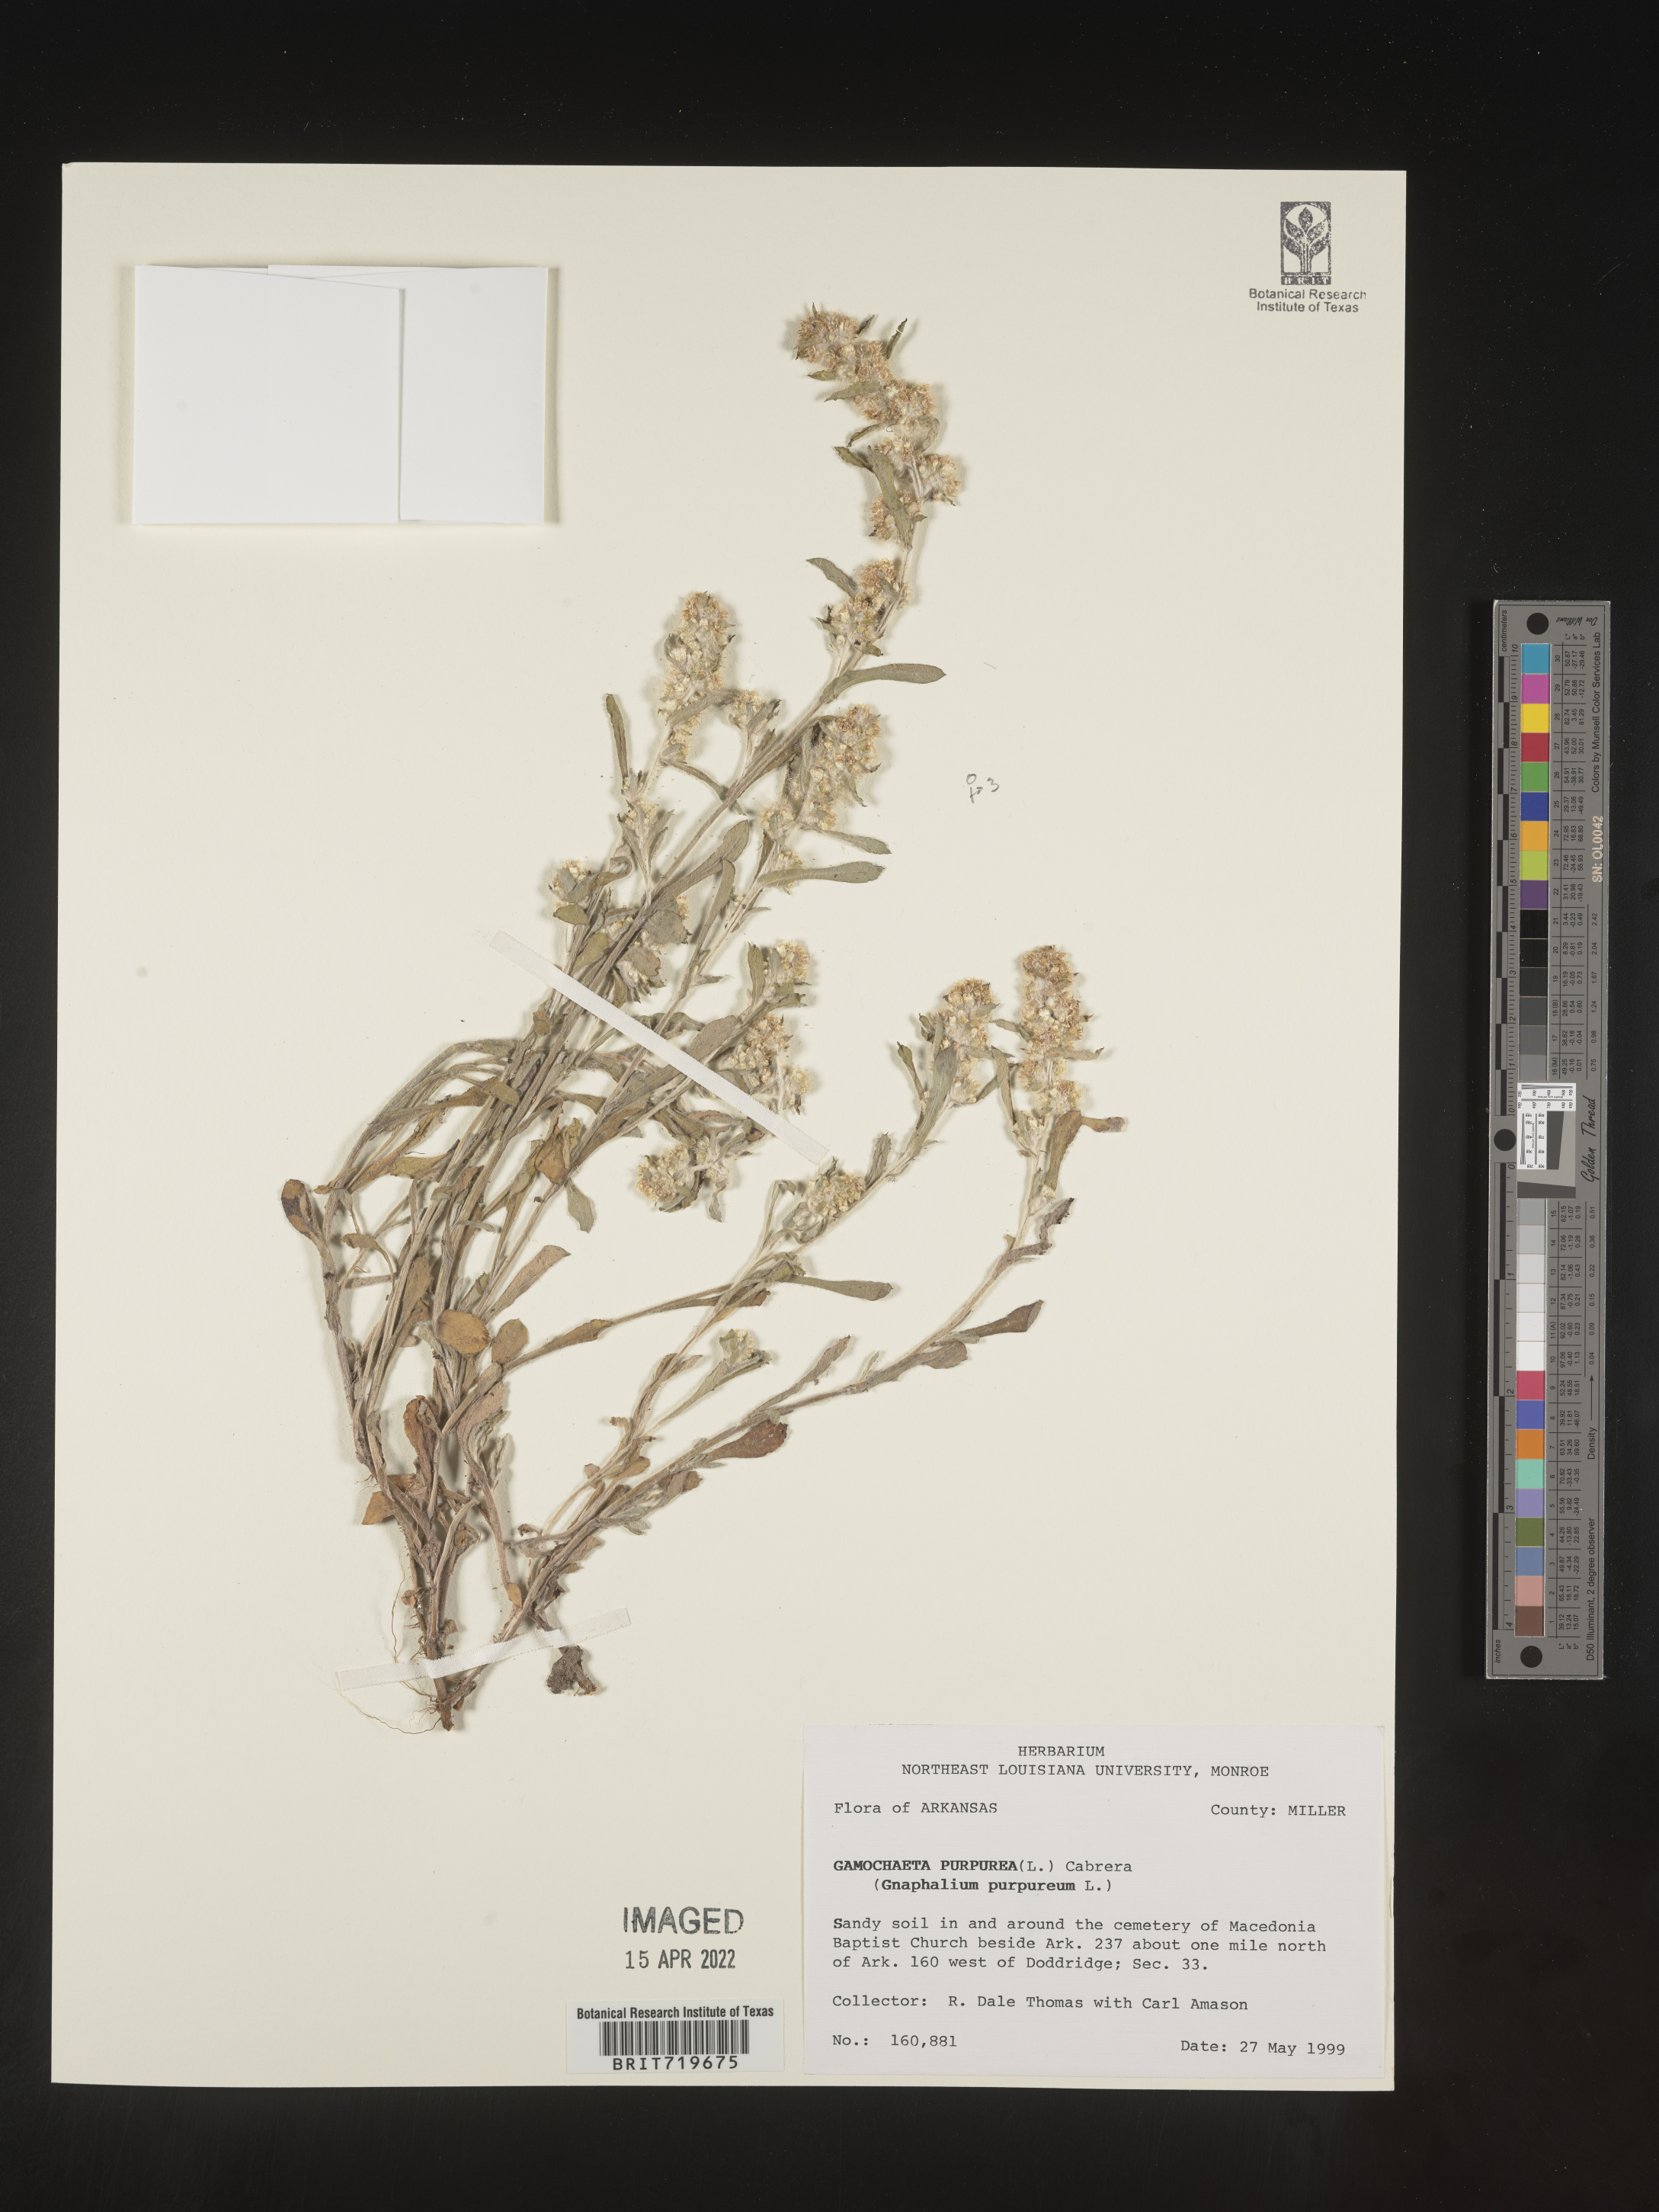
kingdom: Plantae
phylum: Tracheophyta
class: Magnoliopsida
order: Asterales
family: Asteraceae
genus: Gamochaeta
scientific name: Gamochaeta pensylvanica
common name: Pennsylvania everlasting
